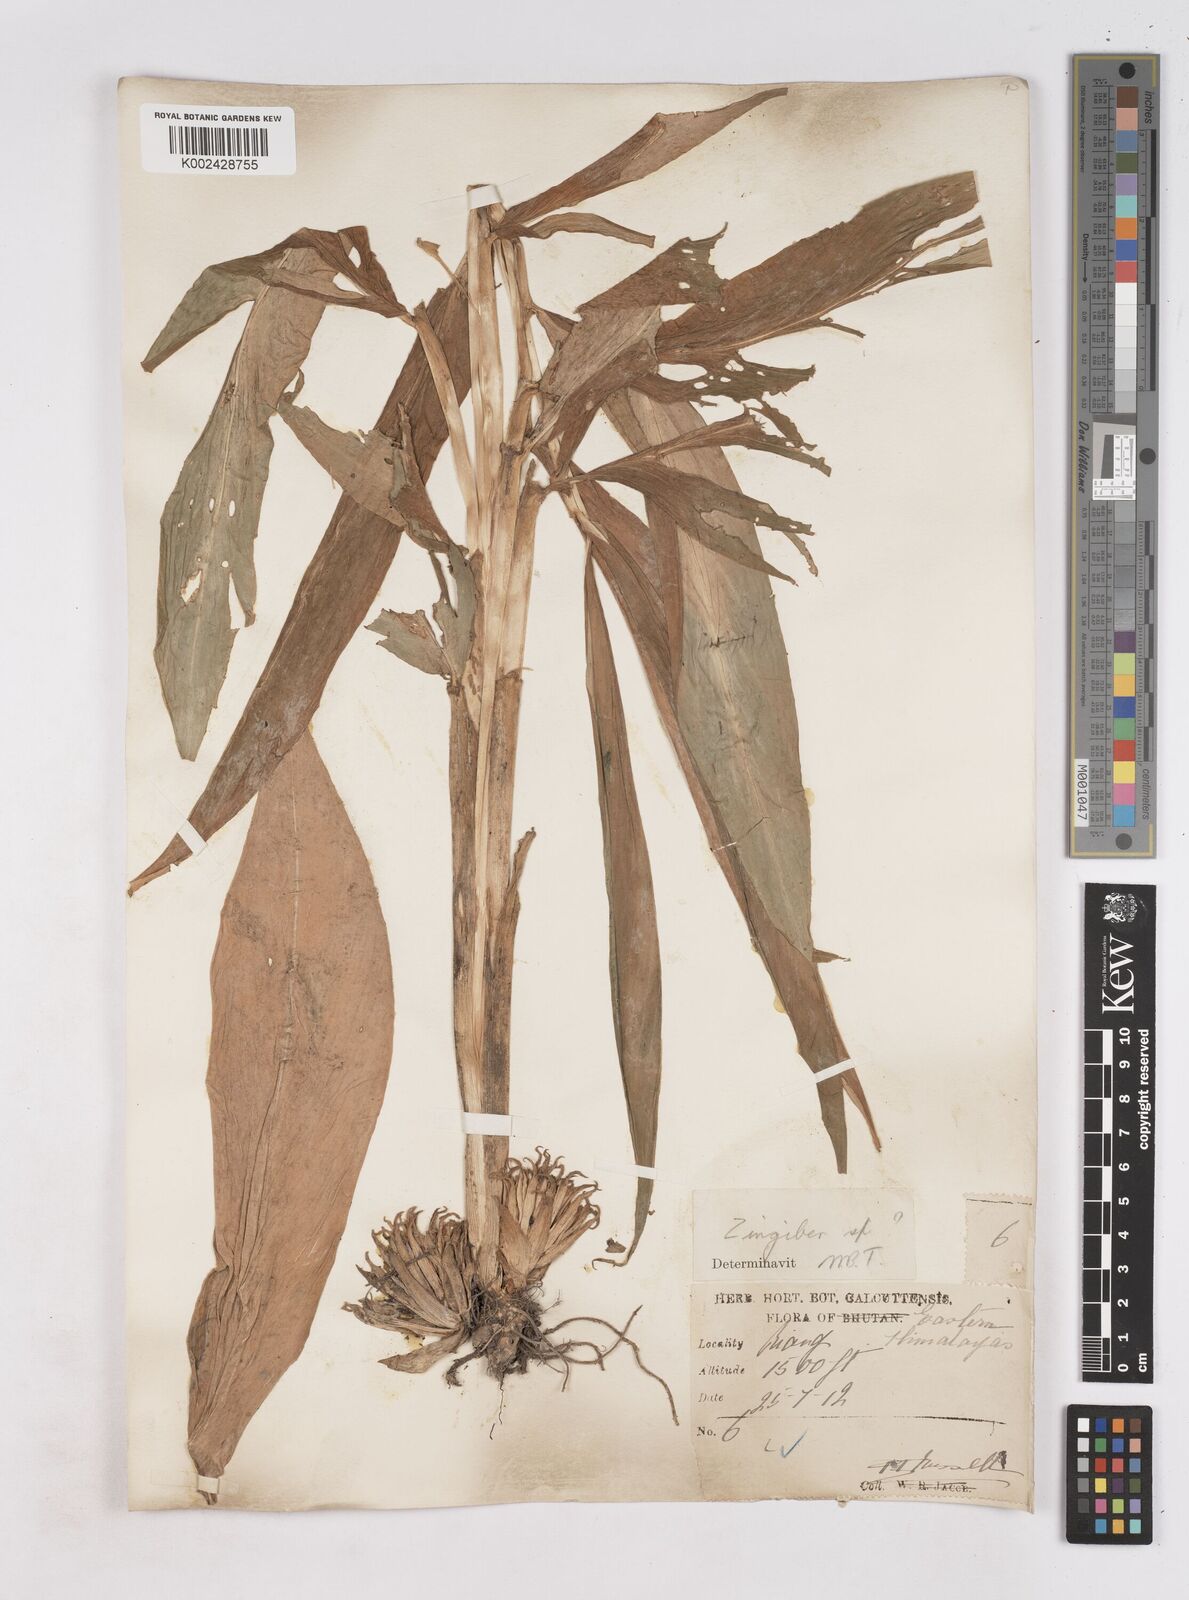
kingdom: Plantae
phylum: Tracheophyta
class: Liliopsida
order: Zingiberales
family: Zingiberaceae
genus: Zingiber
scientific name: Zingiber
